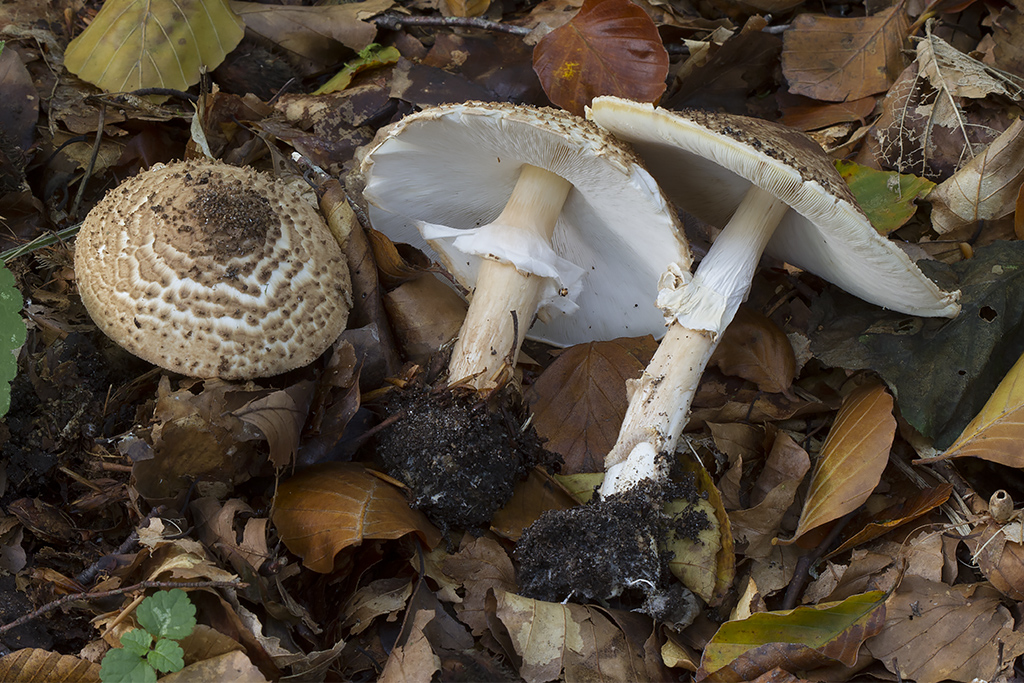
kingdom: Fungi
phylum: Basidiomycota
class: Agaricomycetes
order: Agaricales
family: Agaricaceae
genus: Echinoderma
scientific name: Echinoderma asperum
